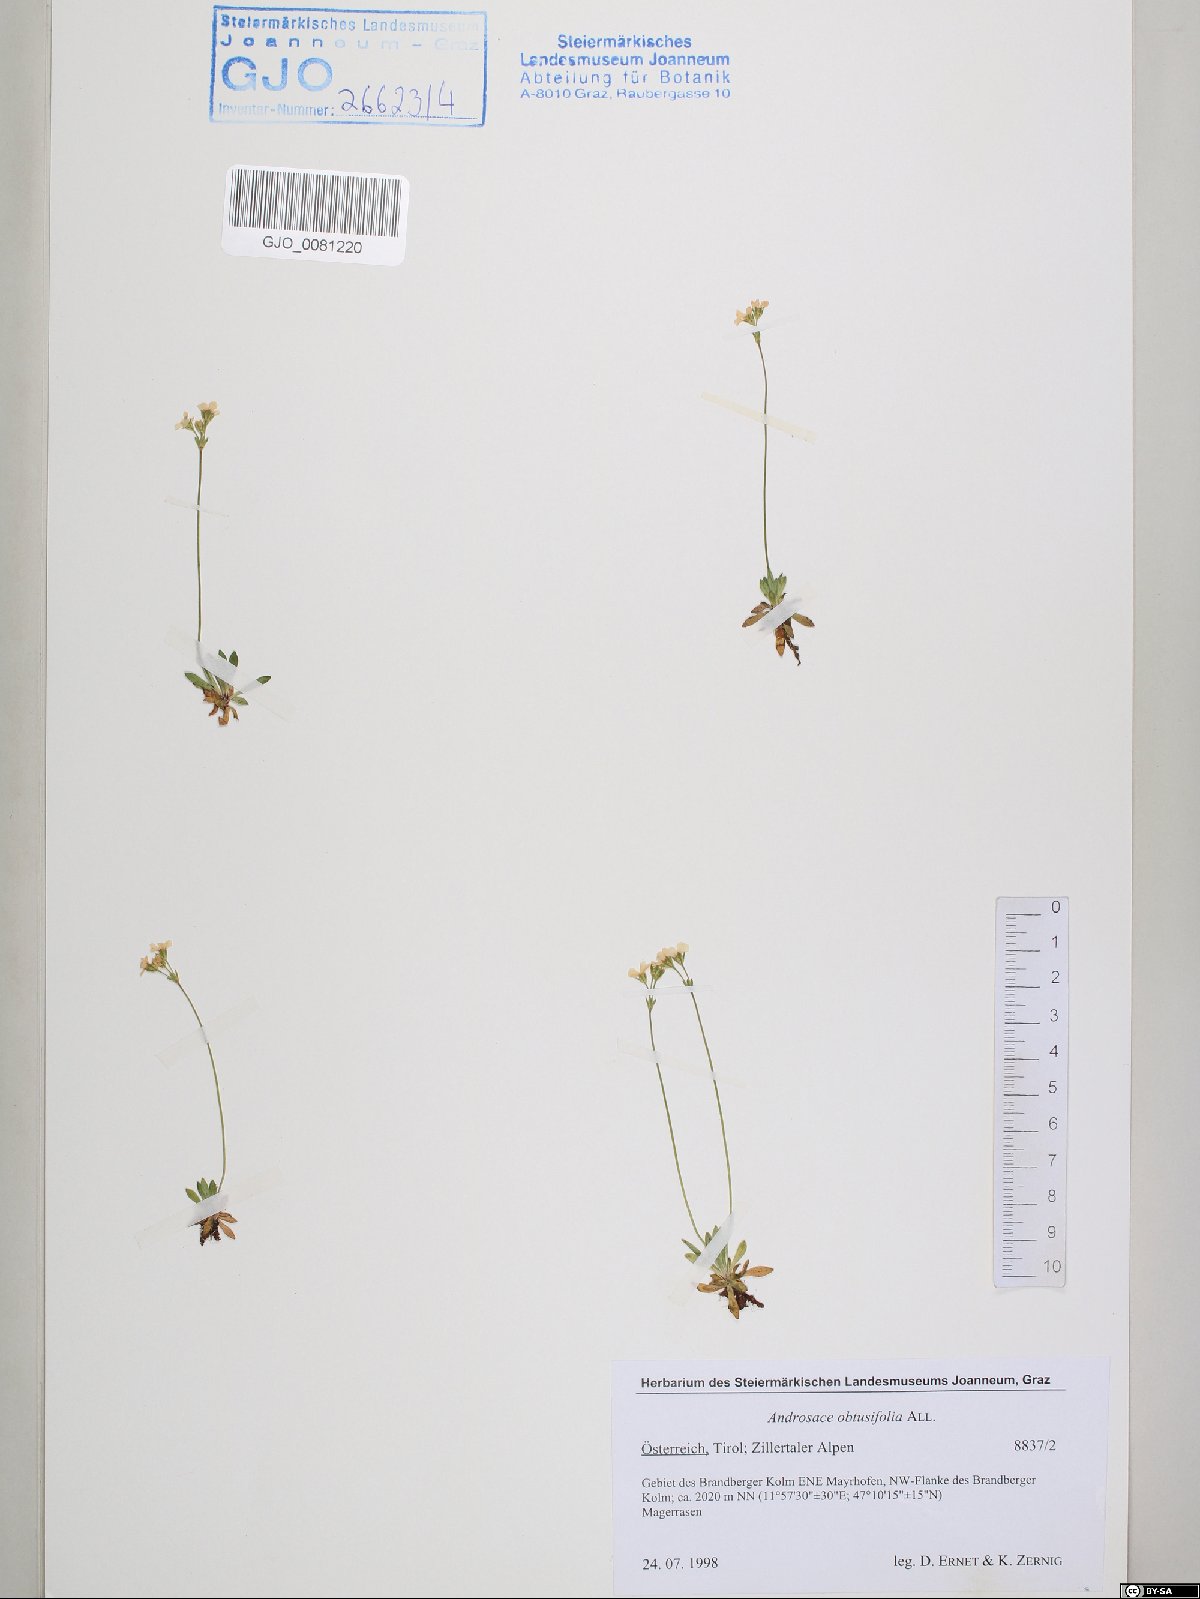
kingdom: Plantae
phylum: Tracheophyta
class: Magnoliopsida
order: Ericales
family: Primulaceae
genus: Androsace
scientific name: Androsace obtusifolia
